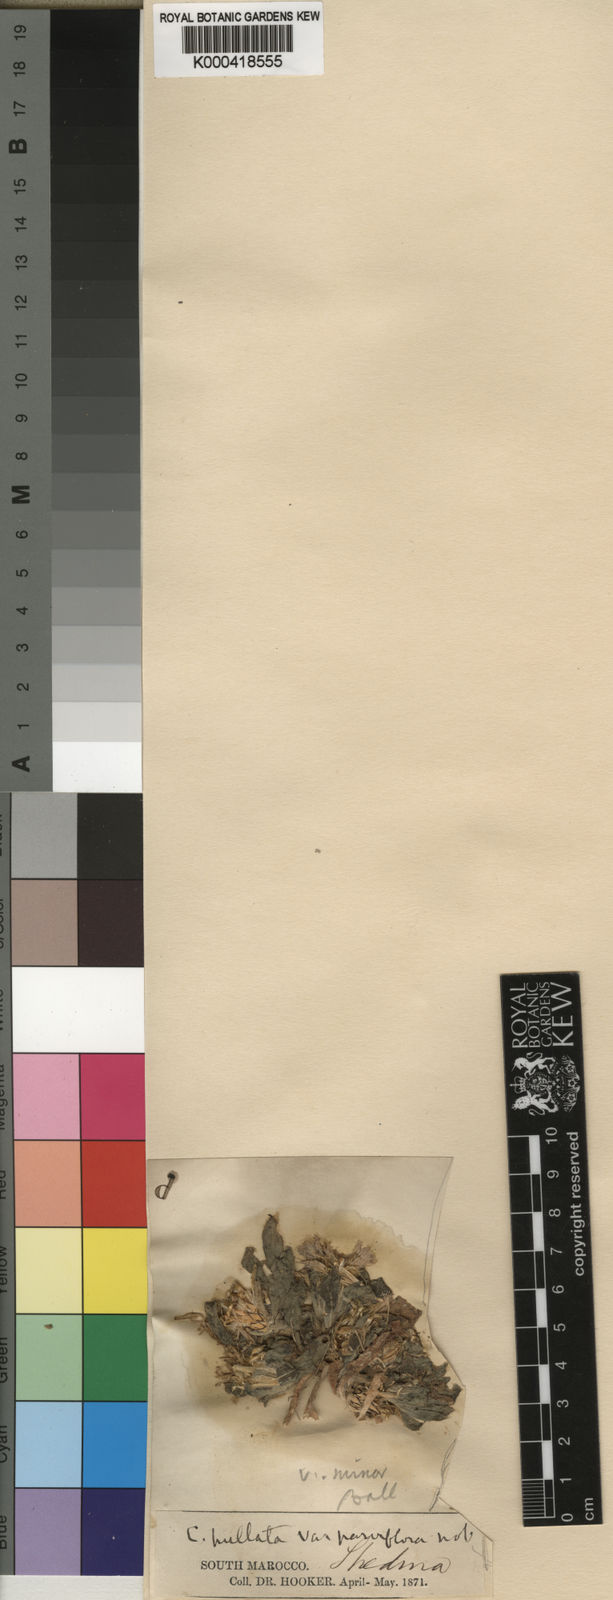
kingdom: Plantae
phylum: Tracheophyta
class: Magnoliopsida
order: Asterales
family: Asteraceae
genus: Centaurea
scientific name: Centaurea pullata
